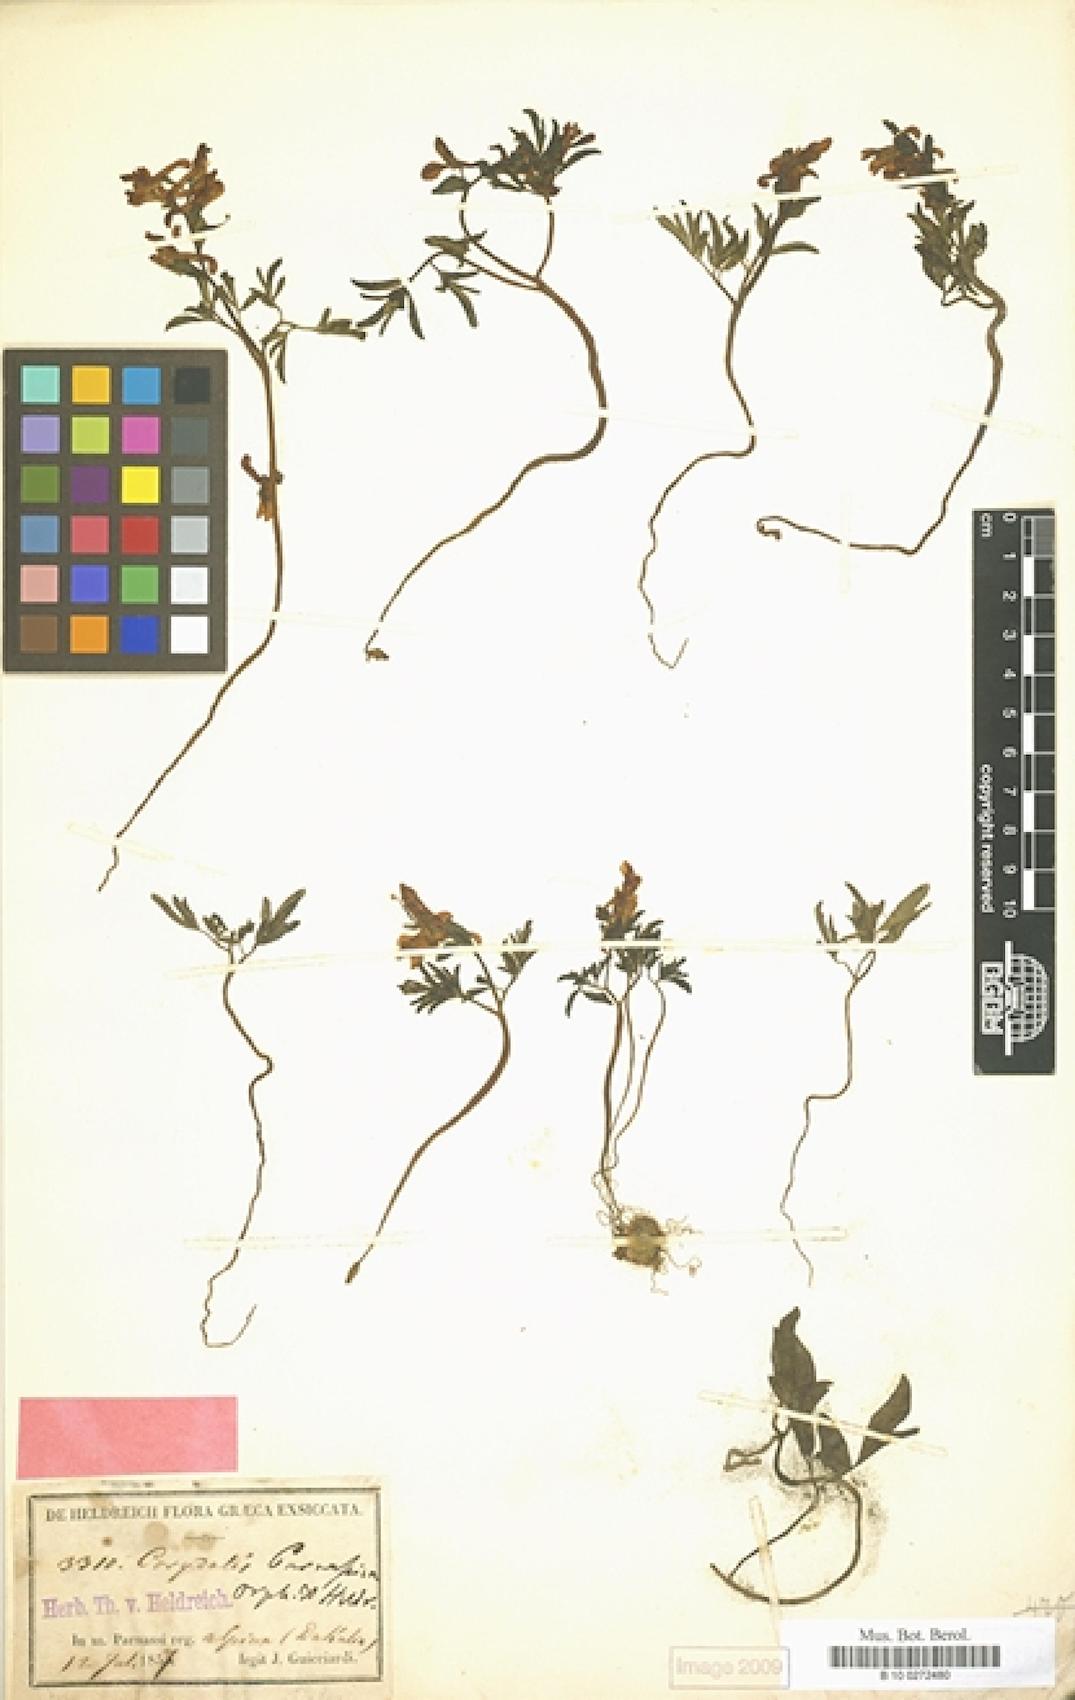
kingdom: Plantae
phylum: Tracheophyta
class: Magnoliopsida
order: Ranunculales
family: Papaveraceae
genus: Corydalis
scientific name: Corydalis blanda
